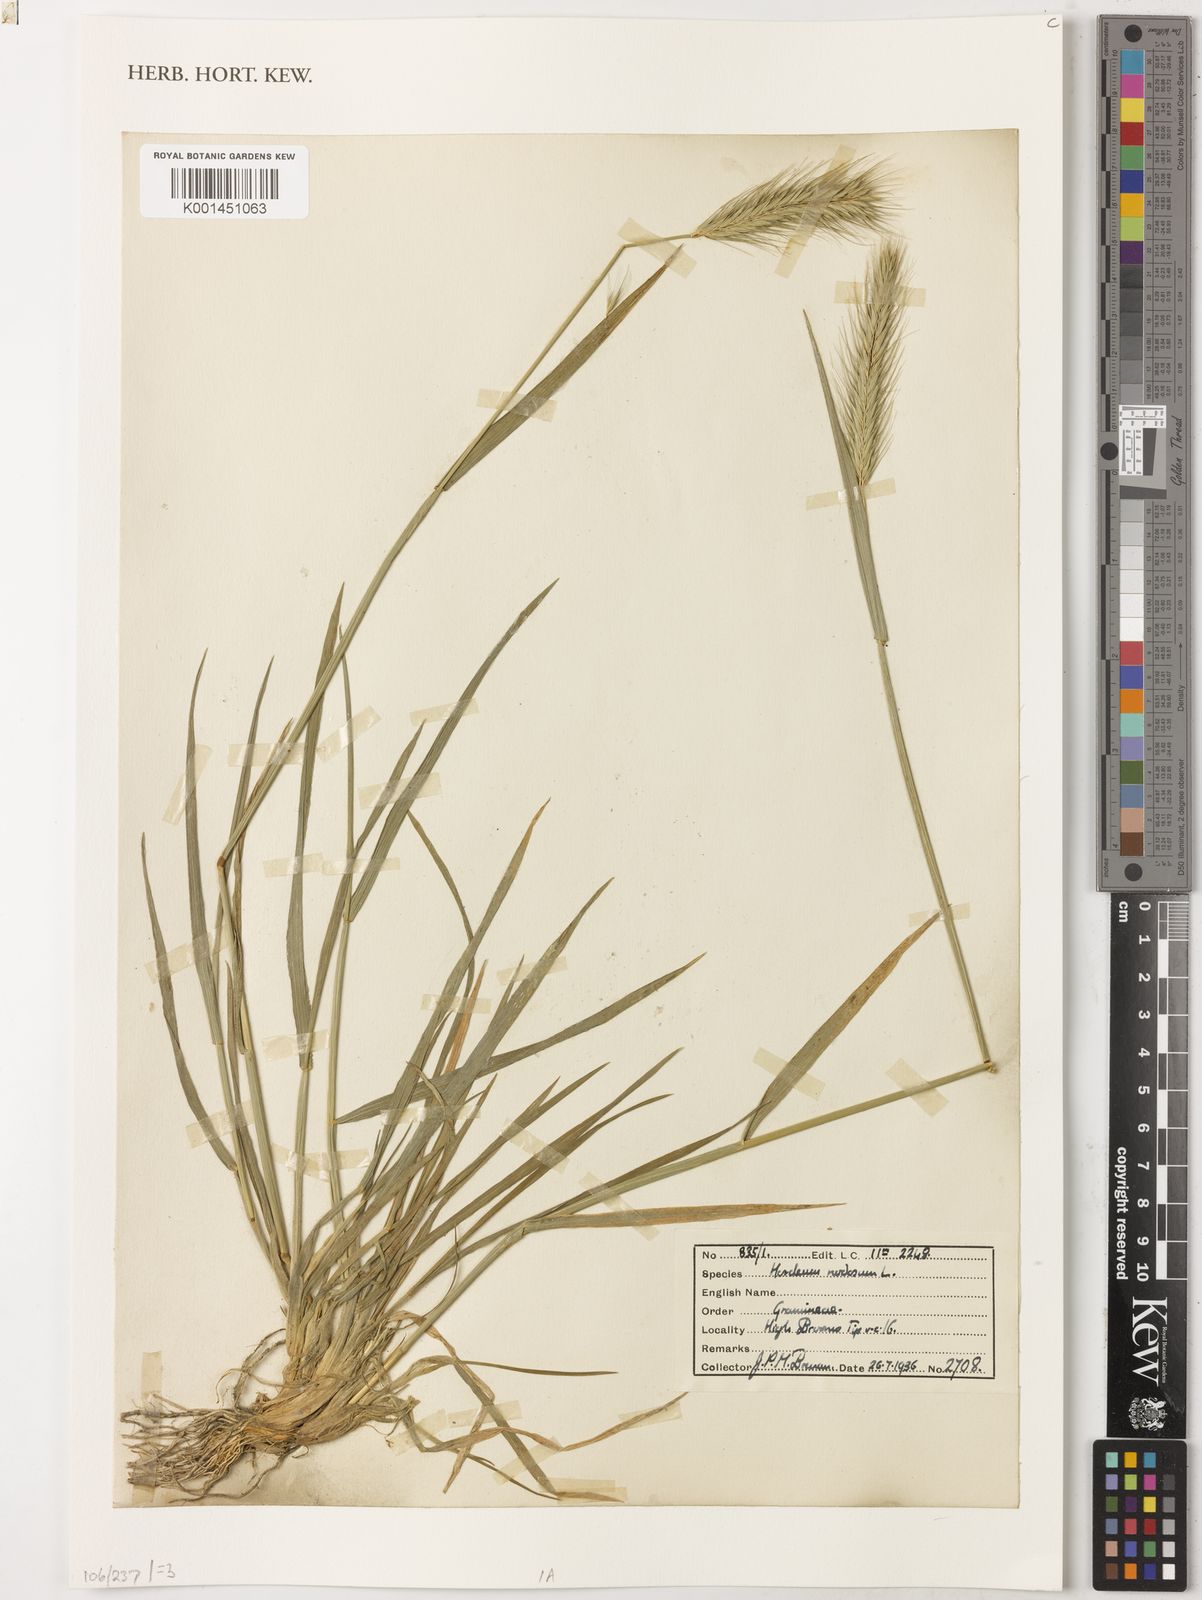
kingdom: Plantae
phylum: Tracheophyta
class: Liliopsida
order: Poales
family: Poaceae
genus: Hordeum
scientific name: Hordeum bulbosum
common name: Bulbous barley
